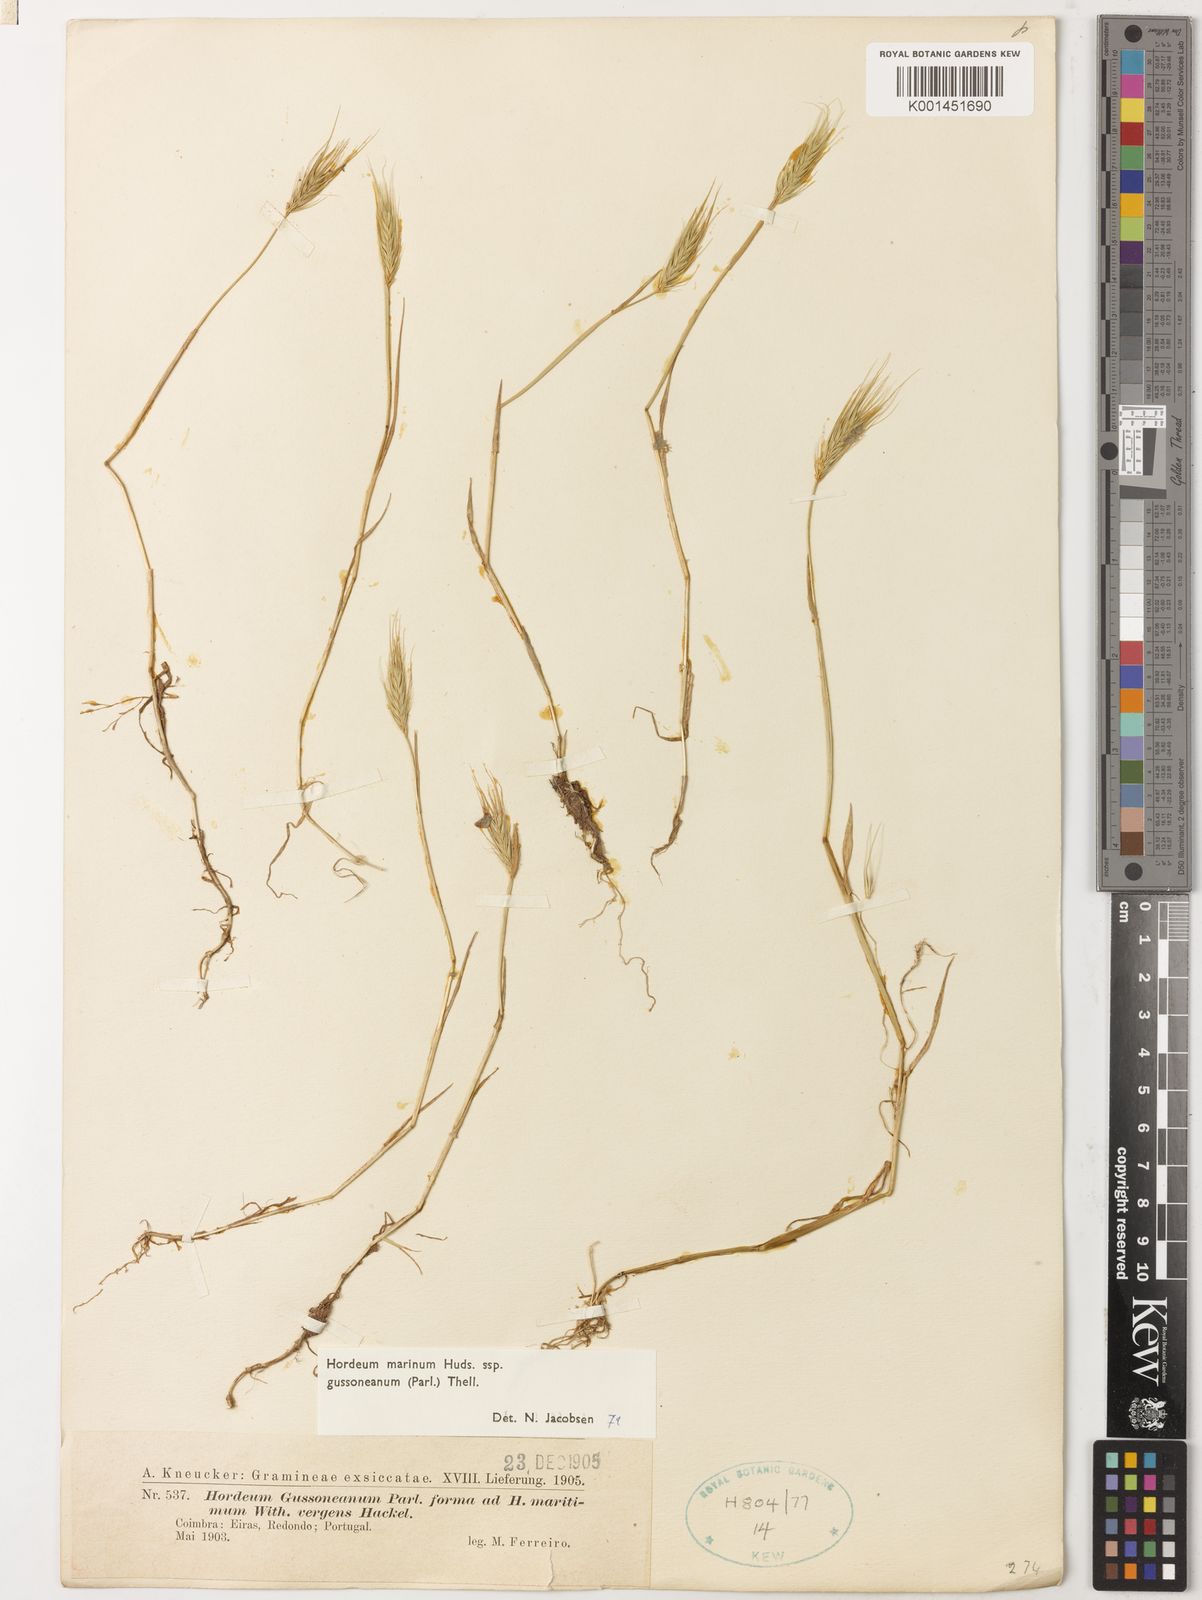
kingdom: Plantae
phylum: Tracheophyta
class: Liliopsida
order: Poales
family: Poaceae
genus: Hordeum
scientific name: Hordeum marinum
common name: Sea barley
